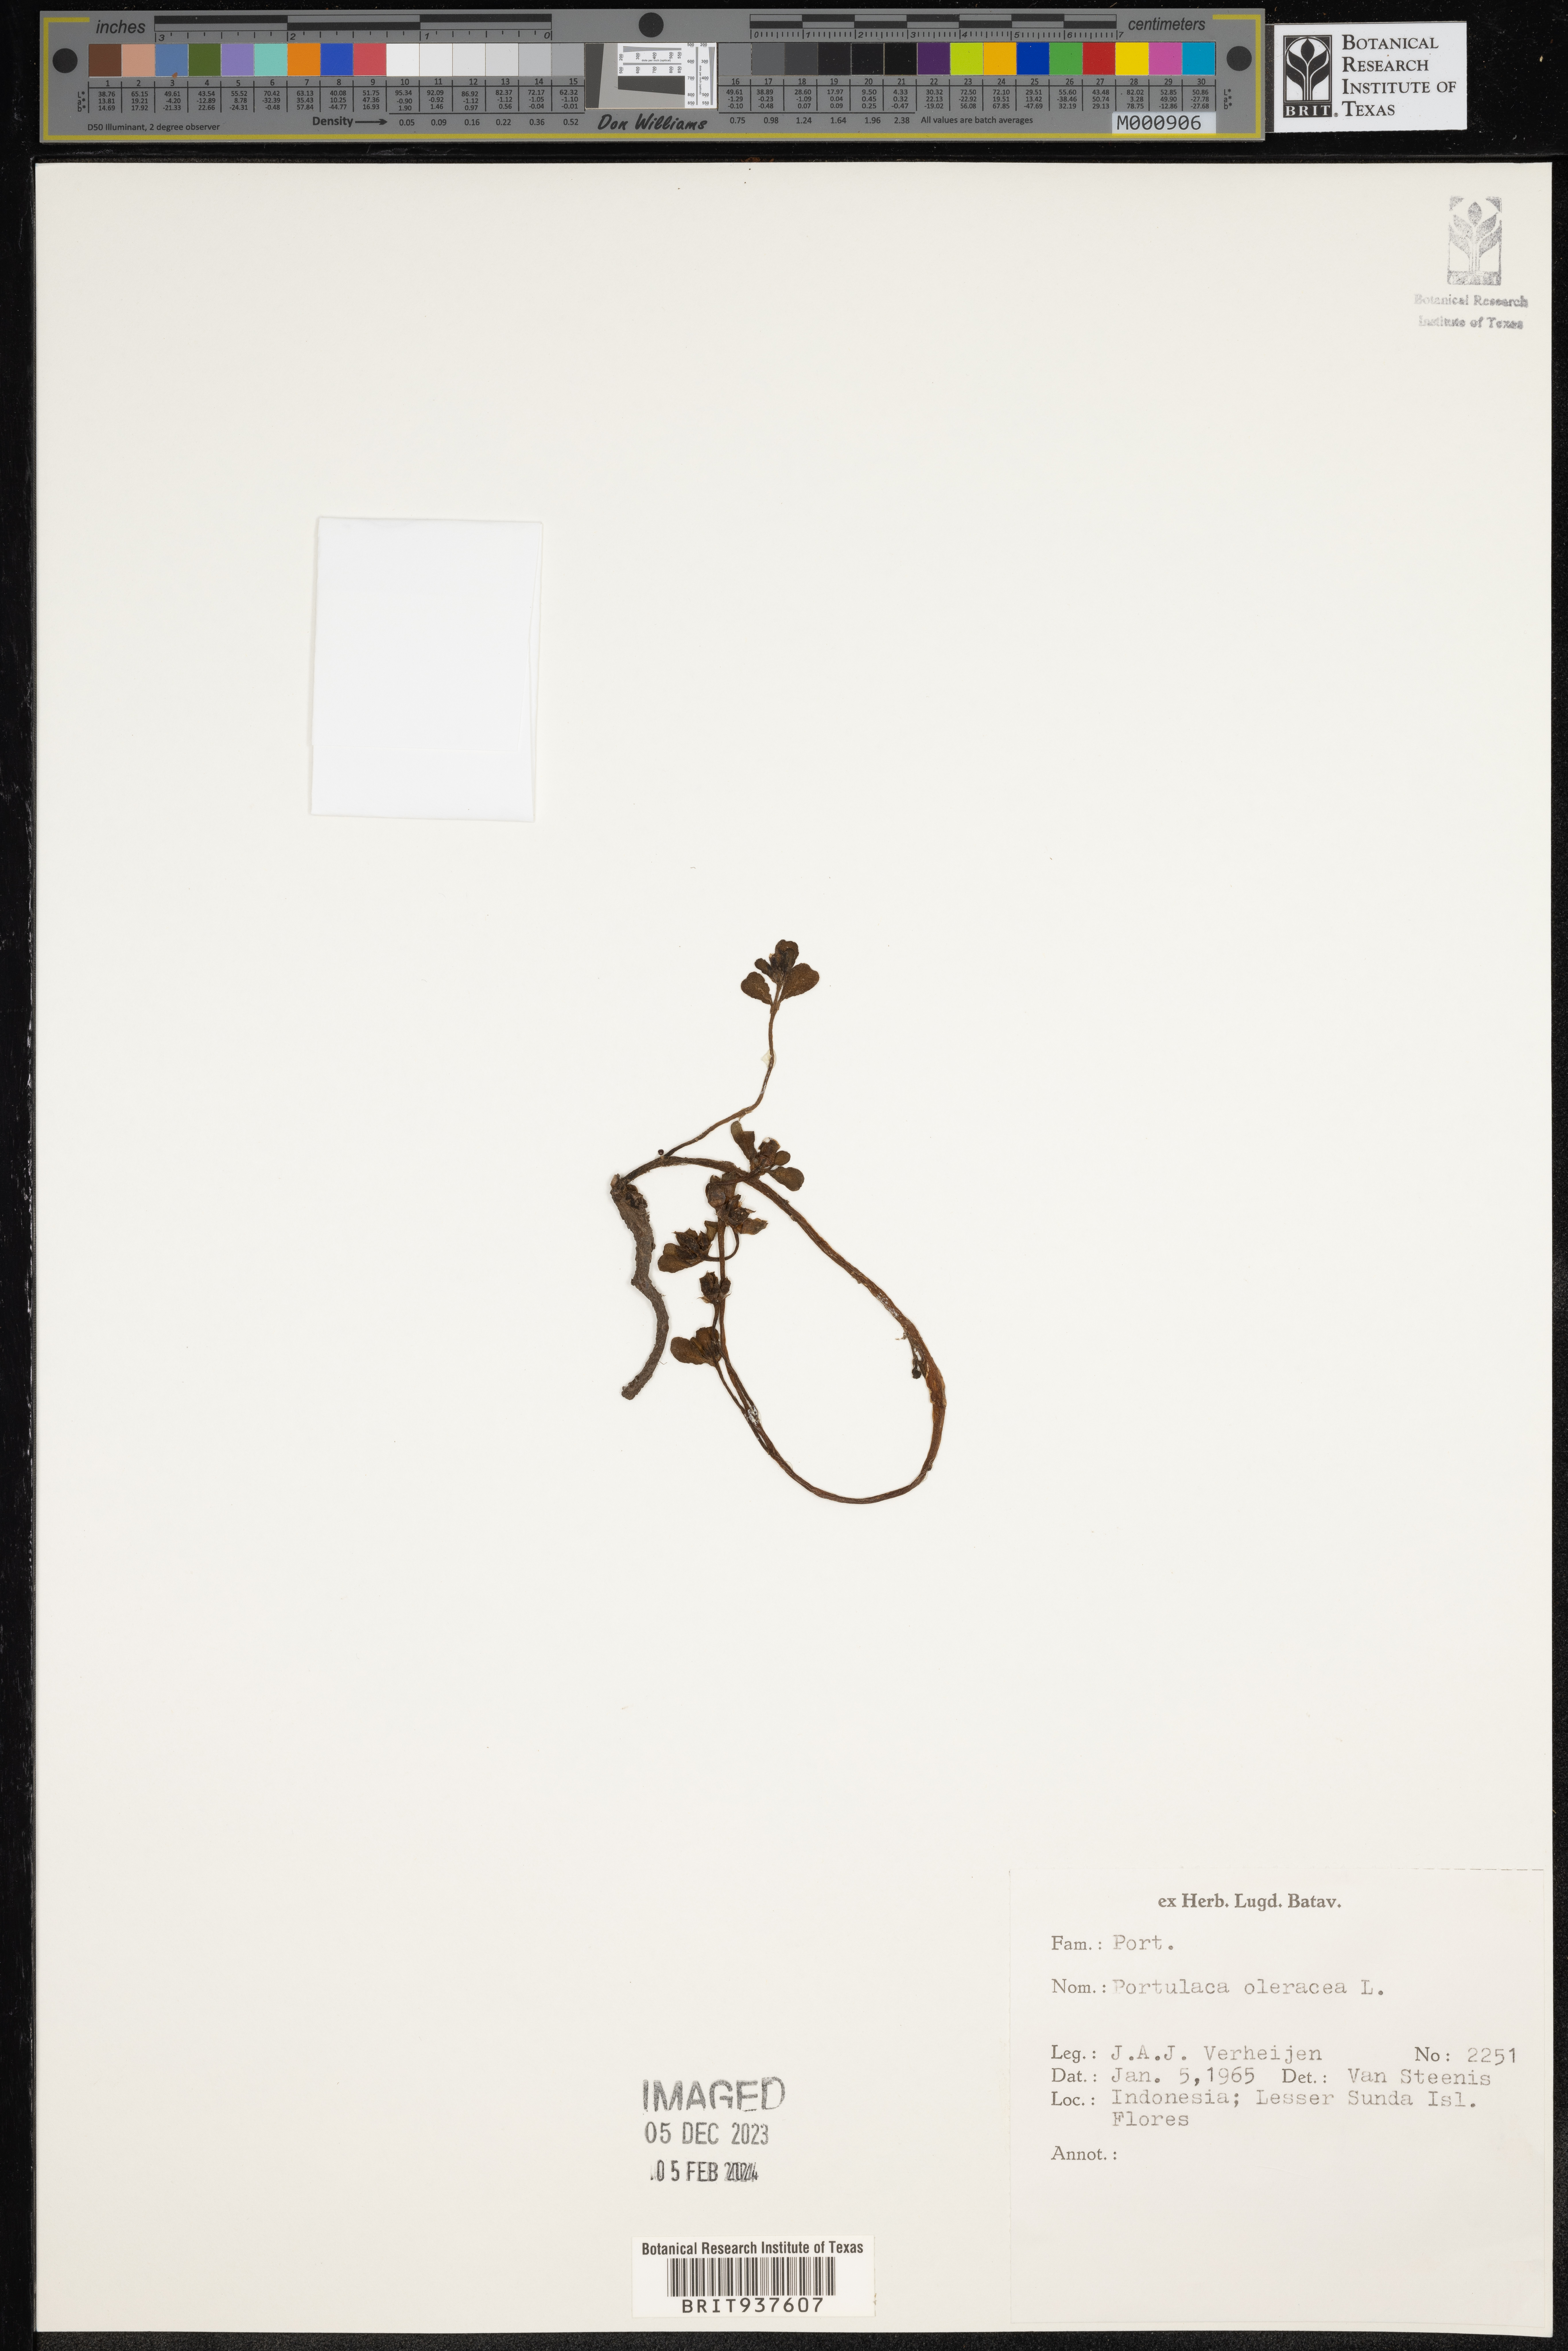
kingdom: Plantae
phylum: Tracheophyta
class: Magnoliopsida
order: Caryophyllales
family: Portulacaceae
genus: Portulaca
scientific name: Portulaca
